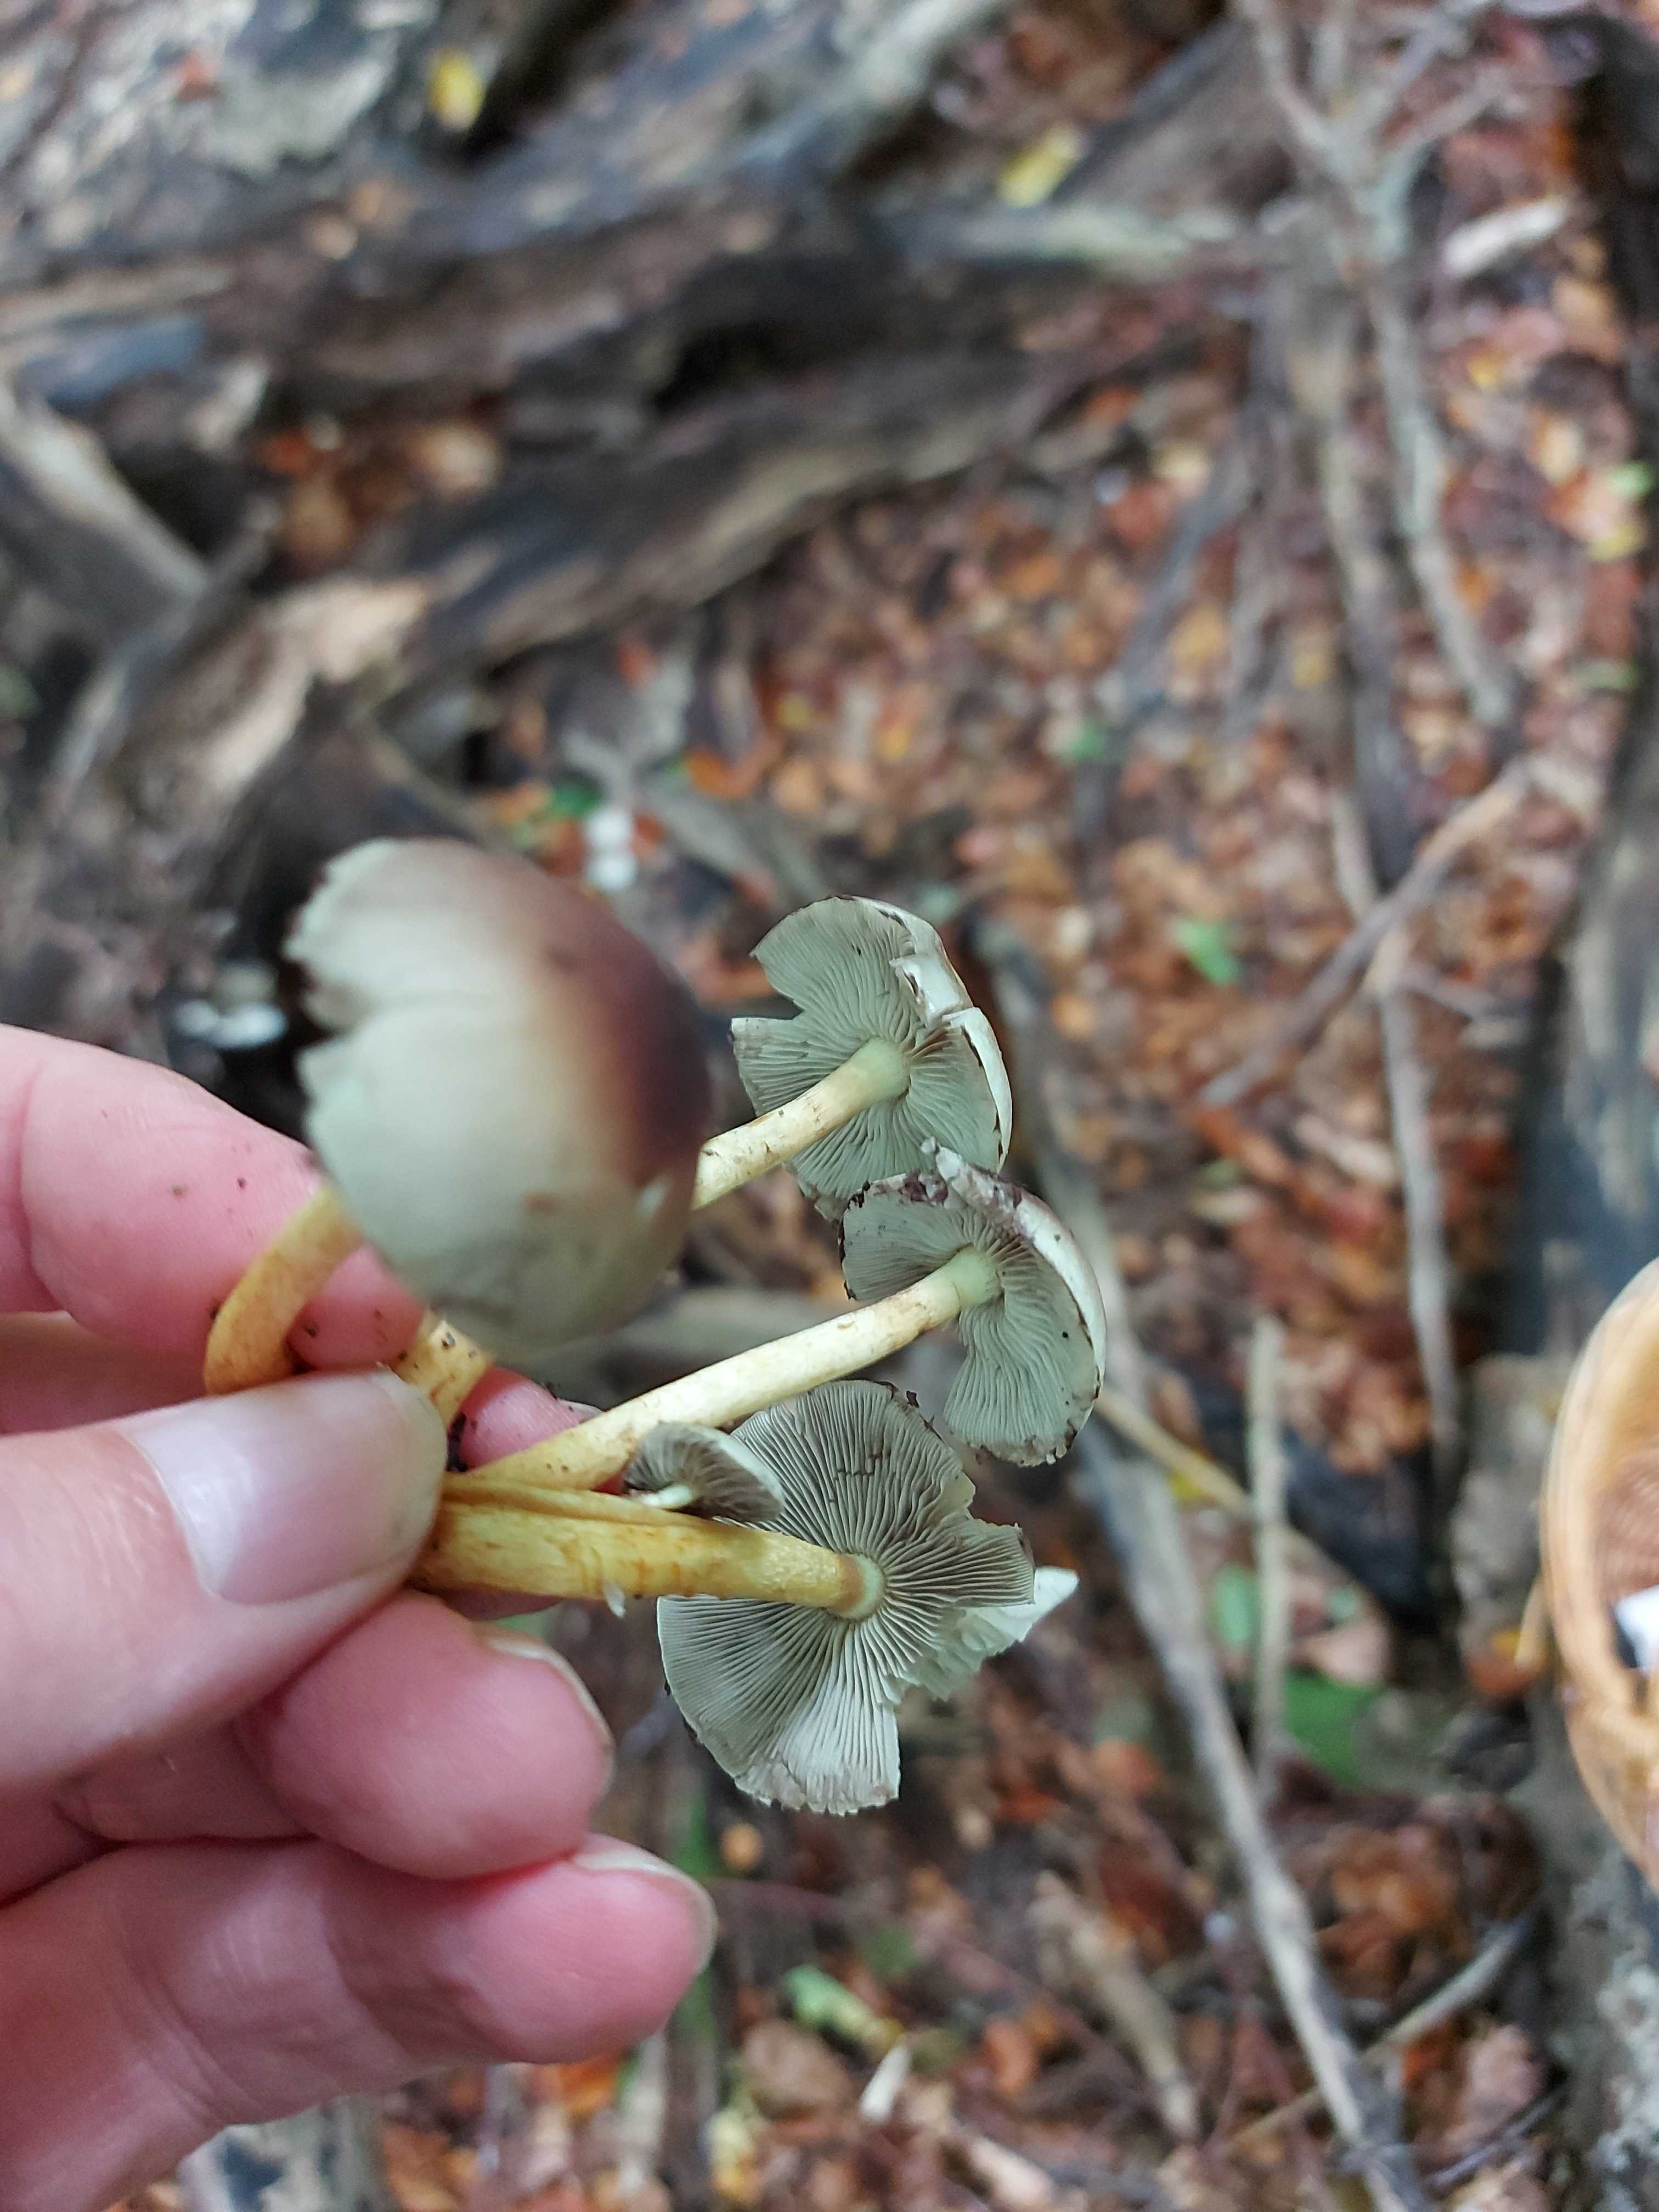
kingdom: Fungi
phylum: Basidiomycota
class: Agaricomycetes
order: Agaricales
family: Strophariaceae
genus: Hypholoma
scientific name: Hypholoma fasciculare
